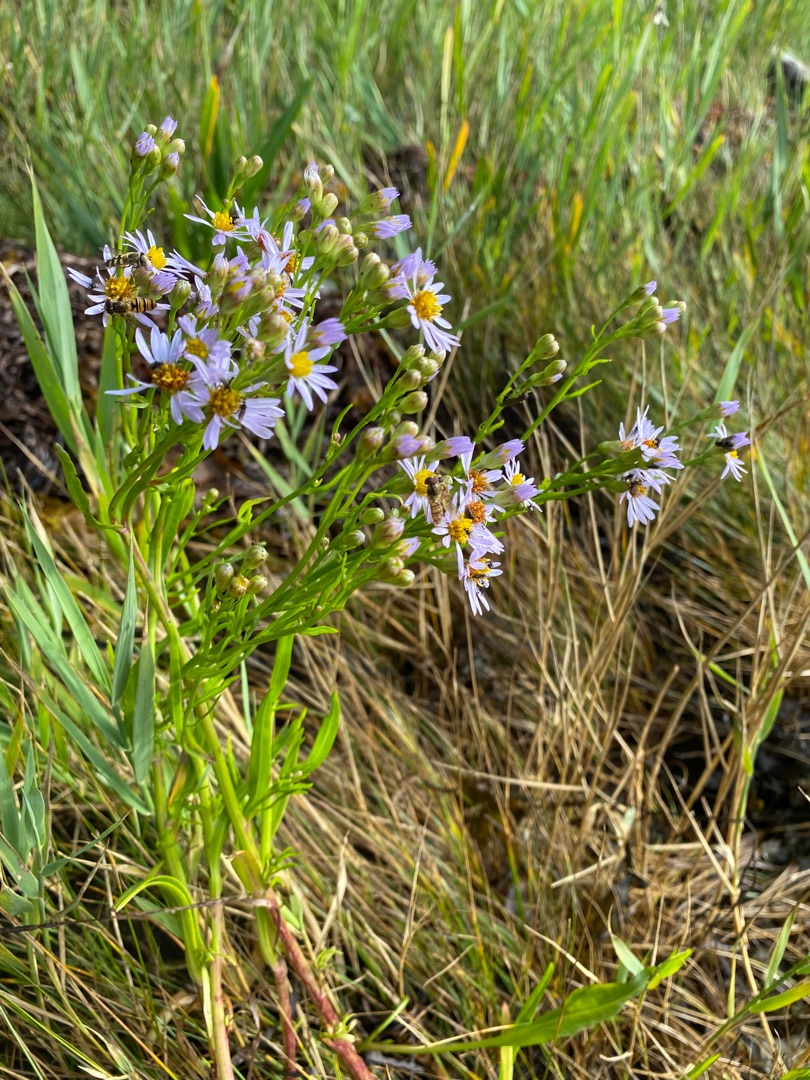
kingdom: Plantae
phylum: Tracheophyta
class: Magnoliopsida
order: Asterales
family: Asteraceae
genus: Tripolium
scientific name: Tripolium pannonicum
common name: Strandasters
